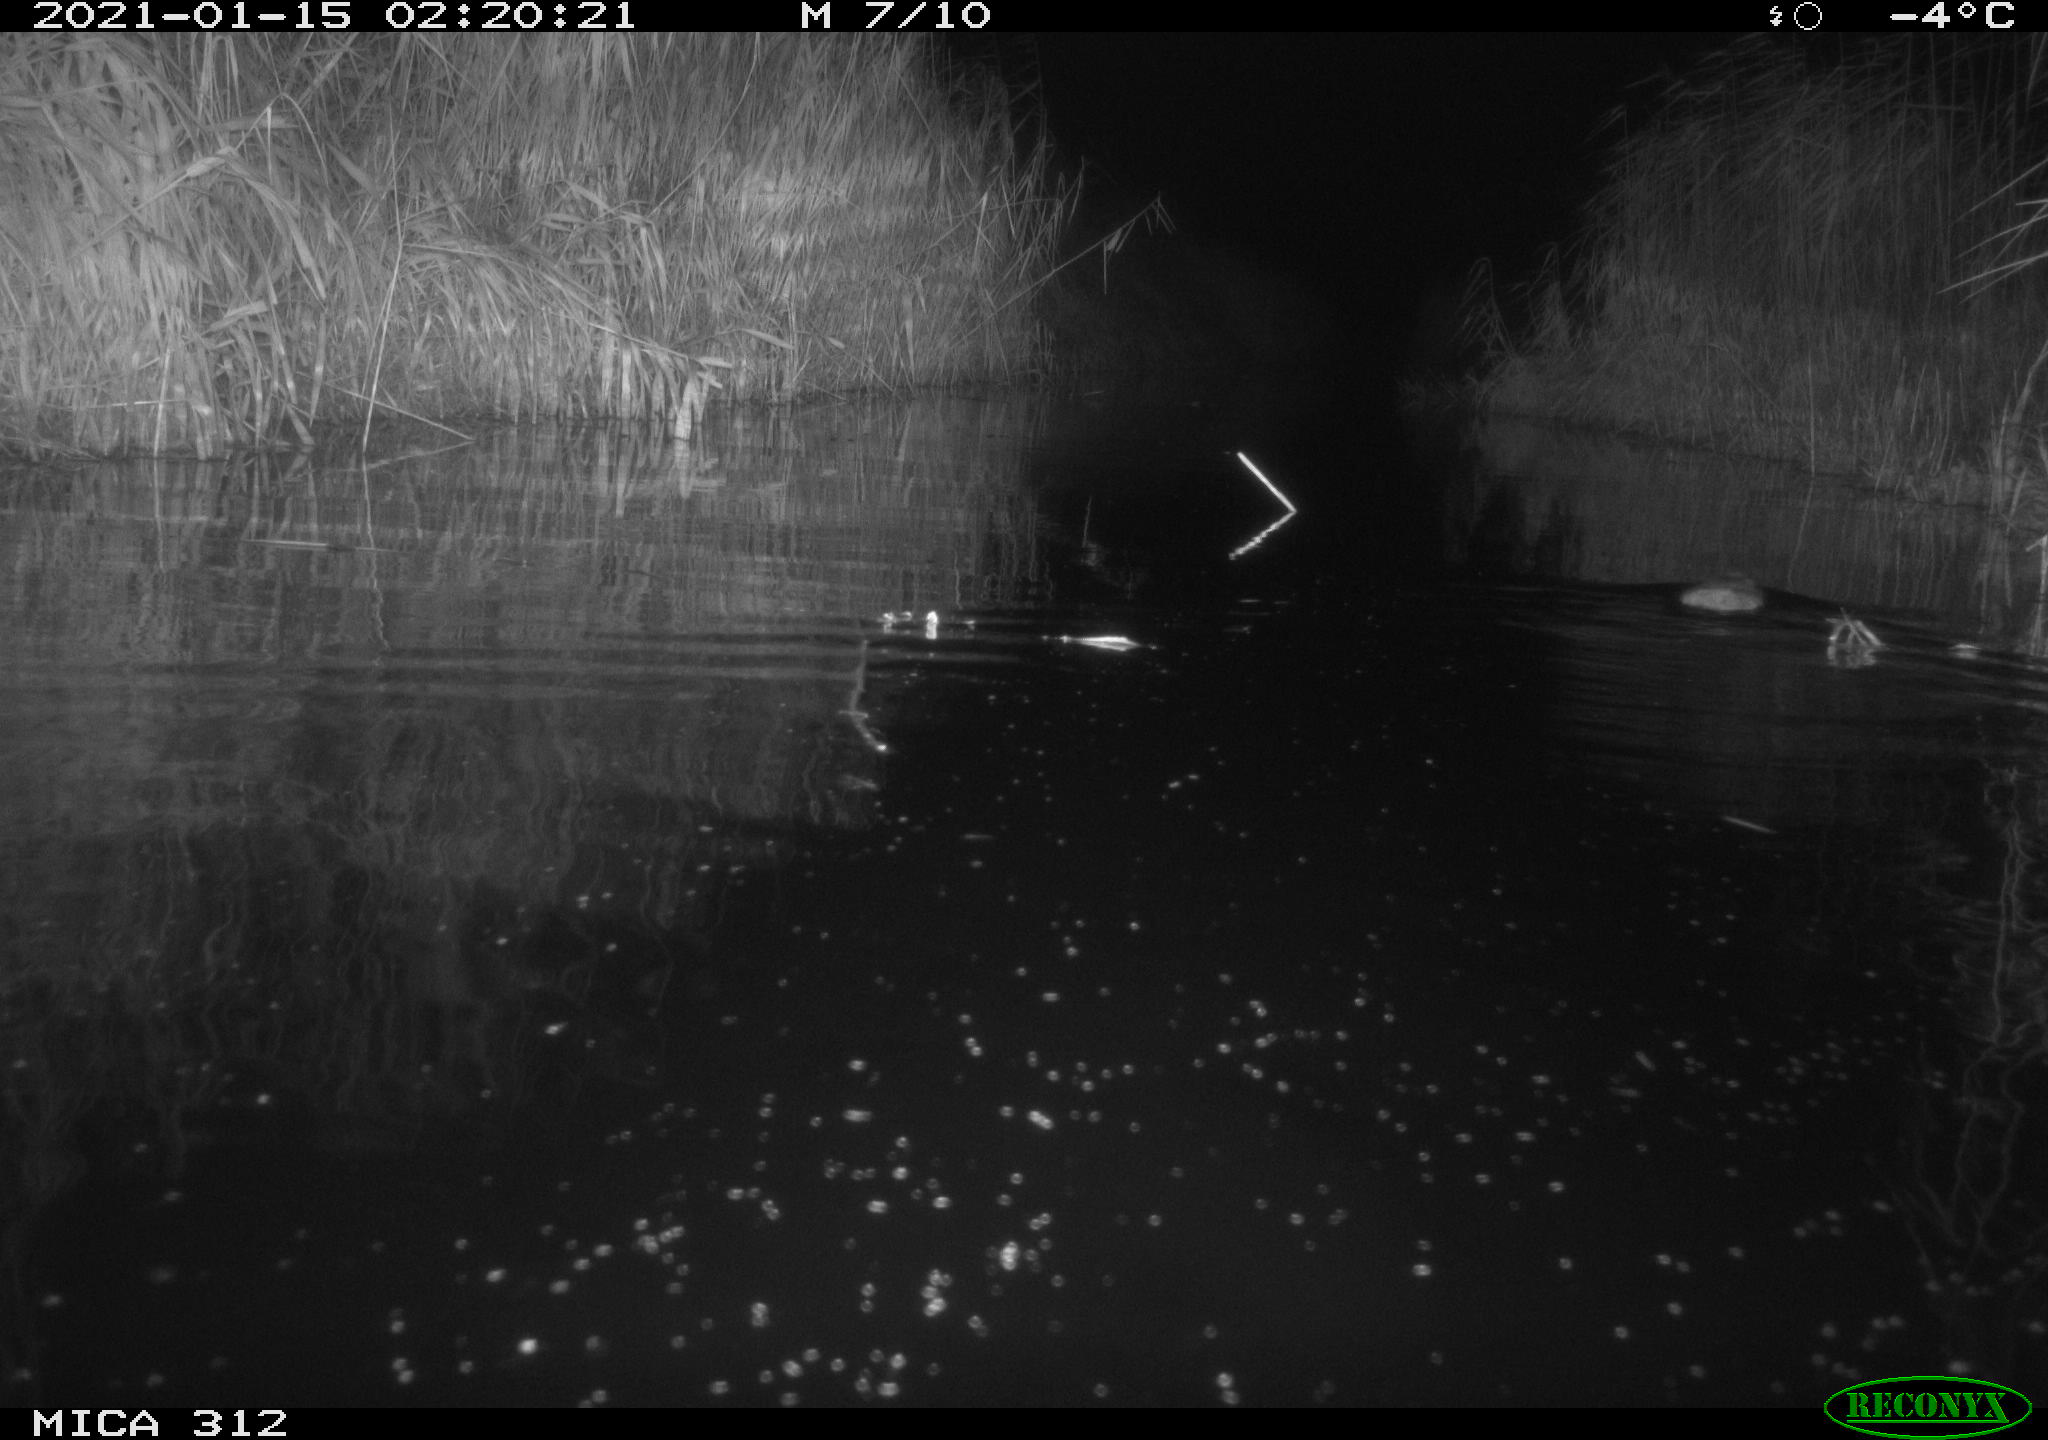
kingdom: Animalia
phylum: Chordata
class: Mammalia
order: Rodentia
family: Muridae
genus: Rattus
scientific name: Rattus norvegicus
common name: Brown rat
